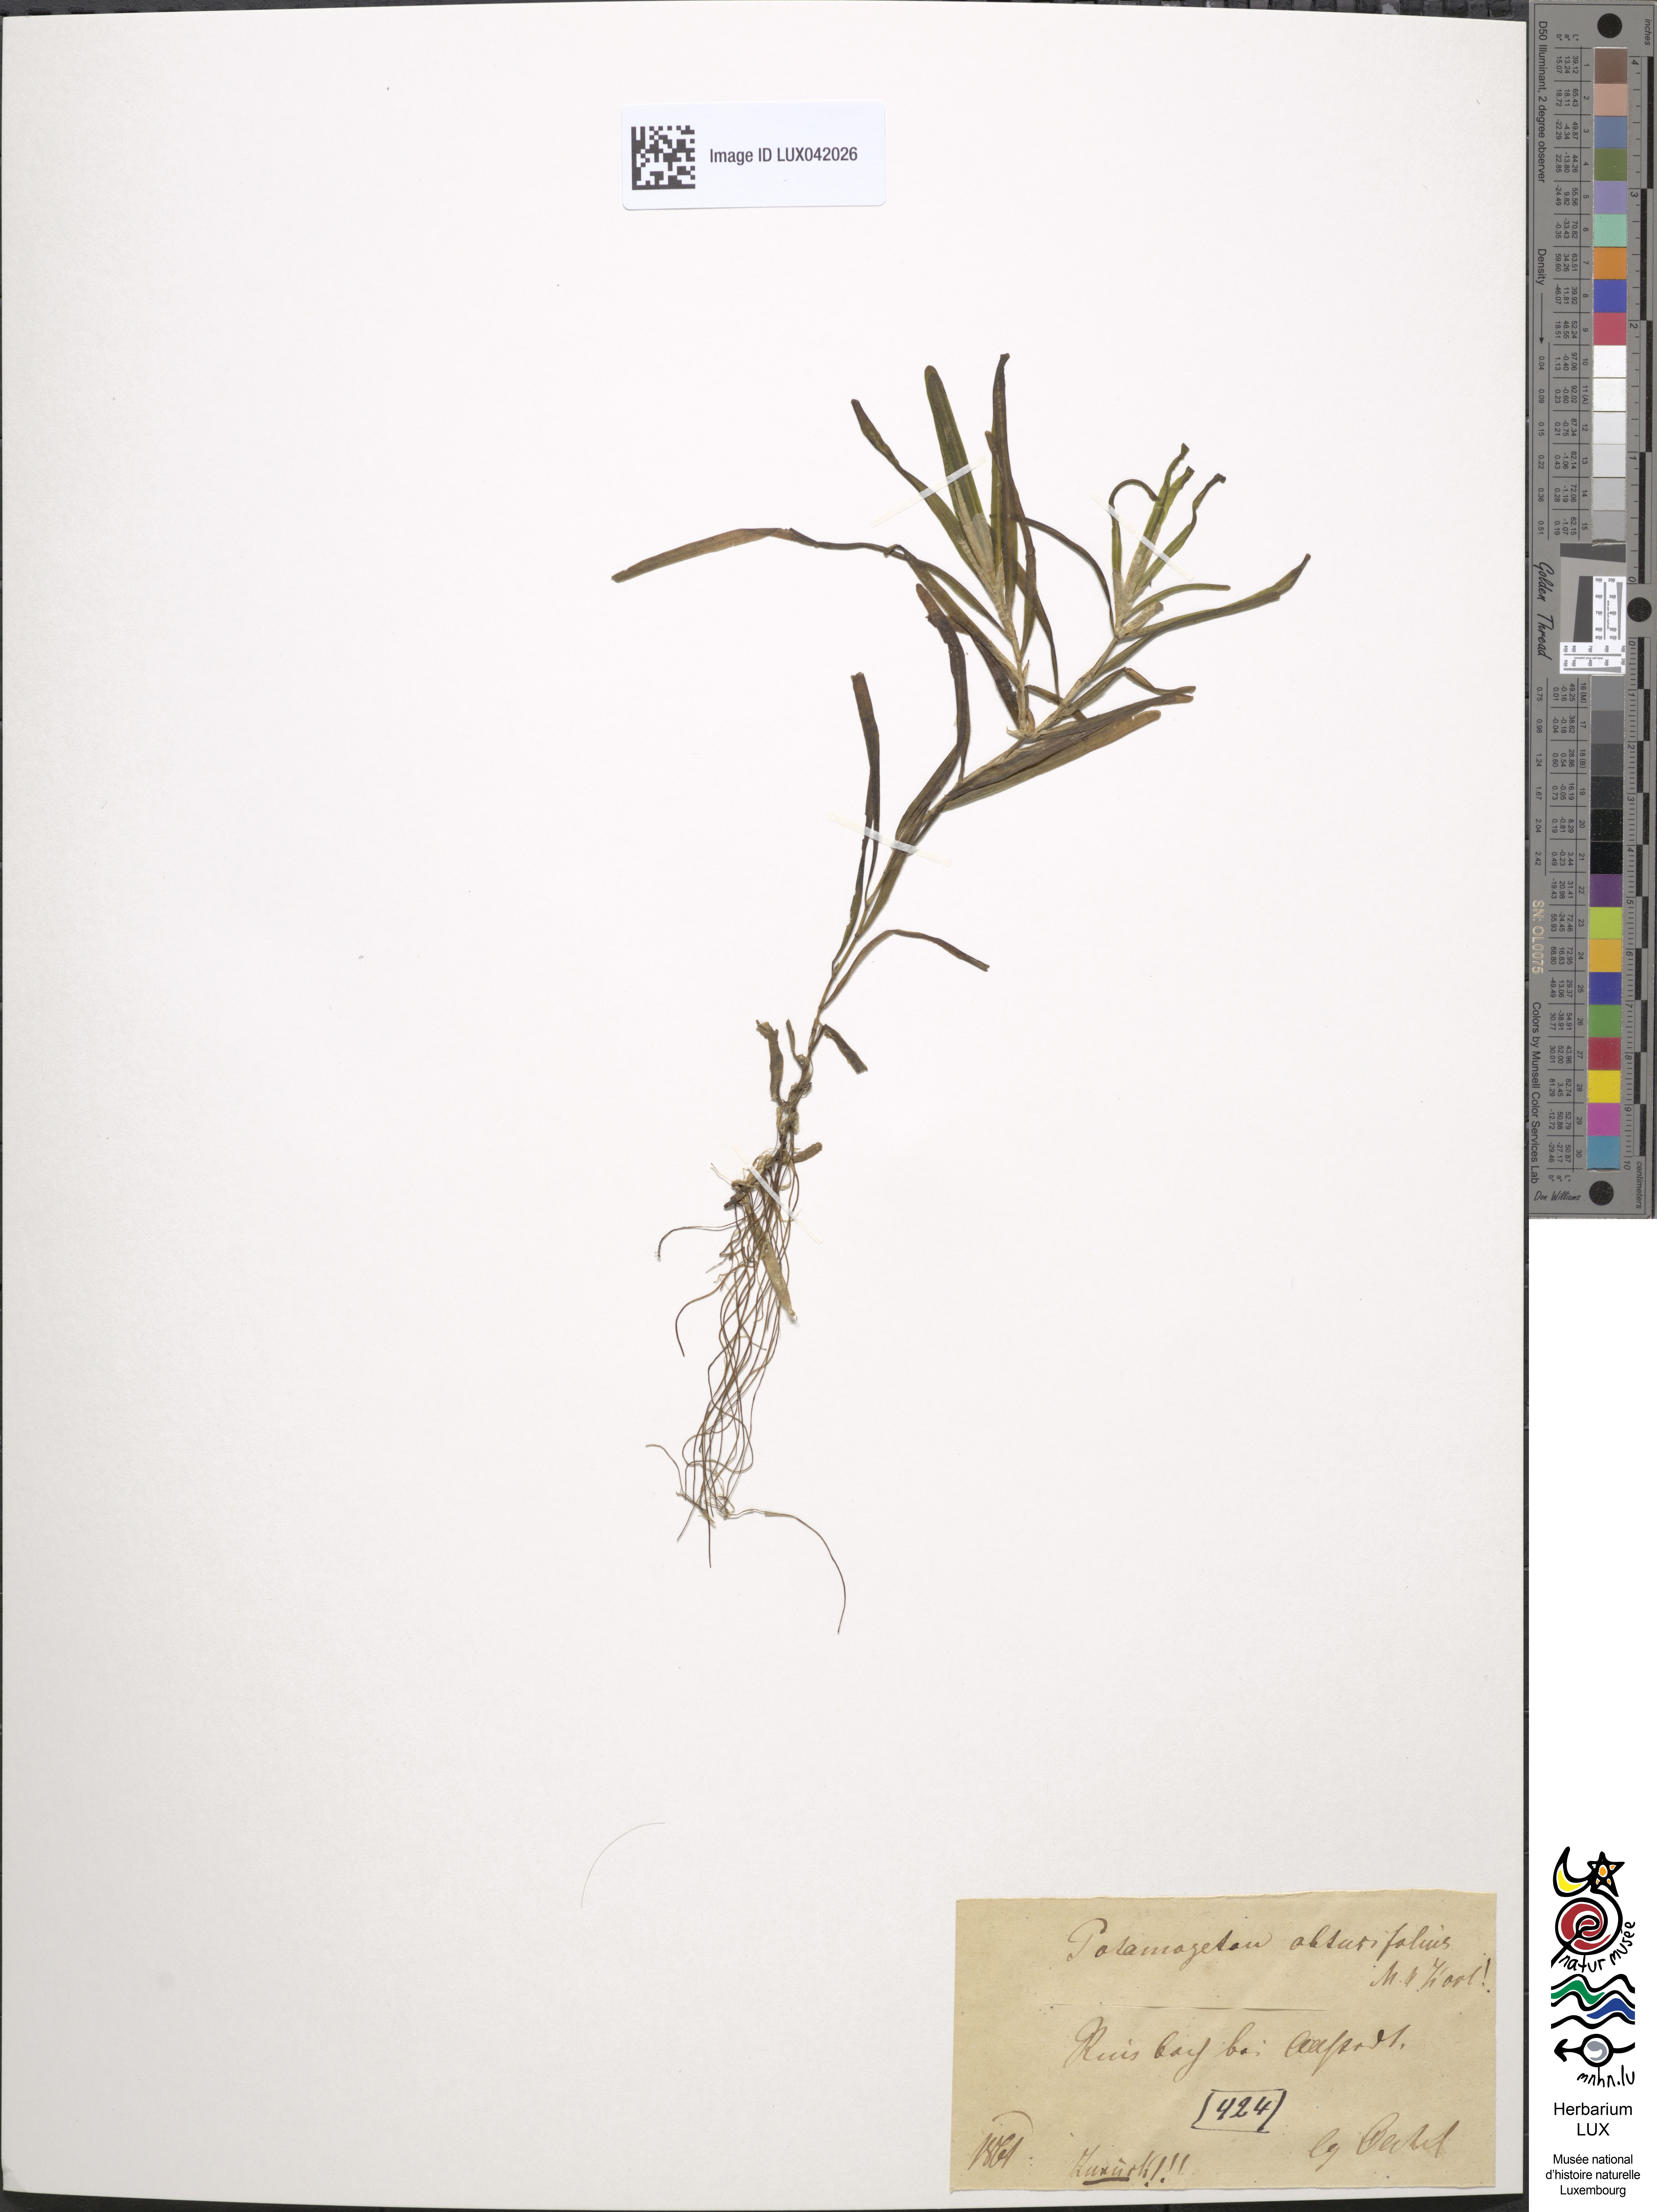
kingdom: Plantae
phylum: Tracheophyta
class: Liliopsida
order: Alismatales
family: Potamogetonaceae
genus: Potamogeton
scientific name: Potamogeton obtusifolius
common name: Blunt-leaved pondweed
